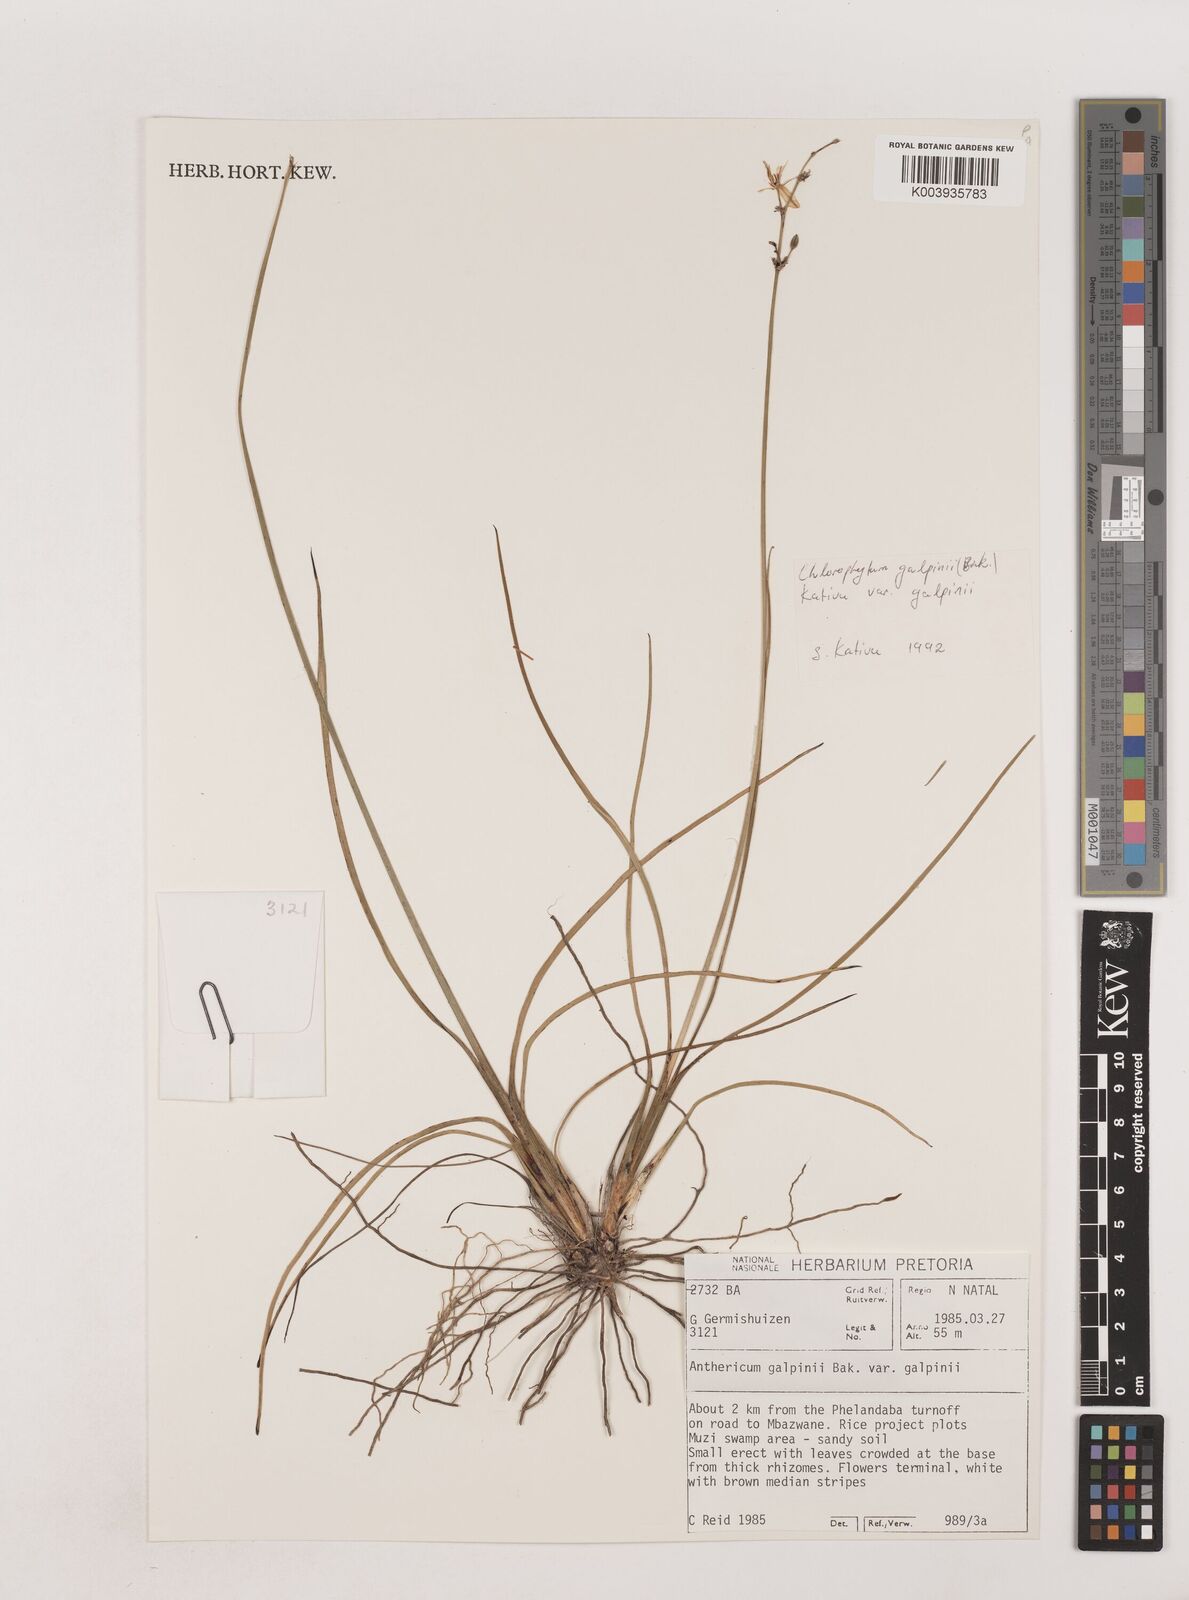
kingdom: Plantae
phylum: Tracheophyta
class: Liliopsida
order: Asparagales
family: Asparagaceae
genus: Chlorophytum
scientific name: Chlorophytum galpinii
